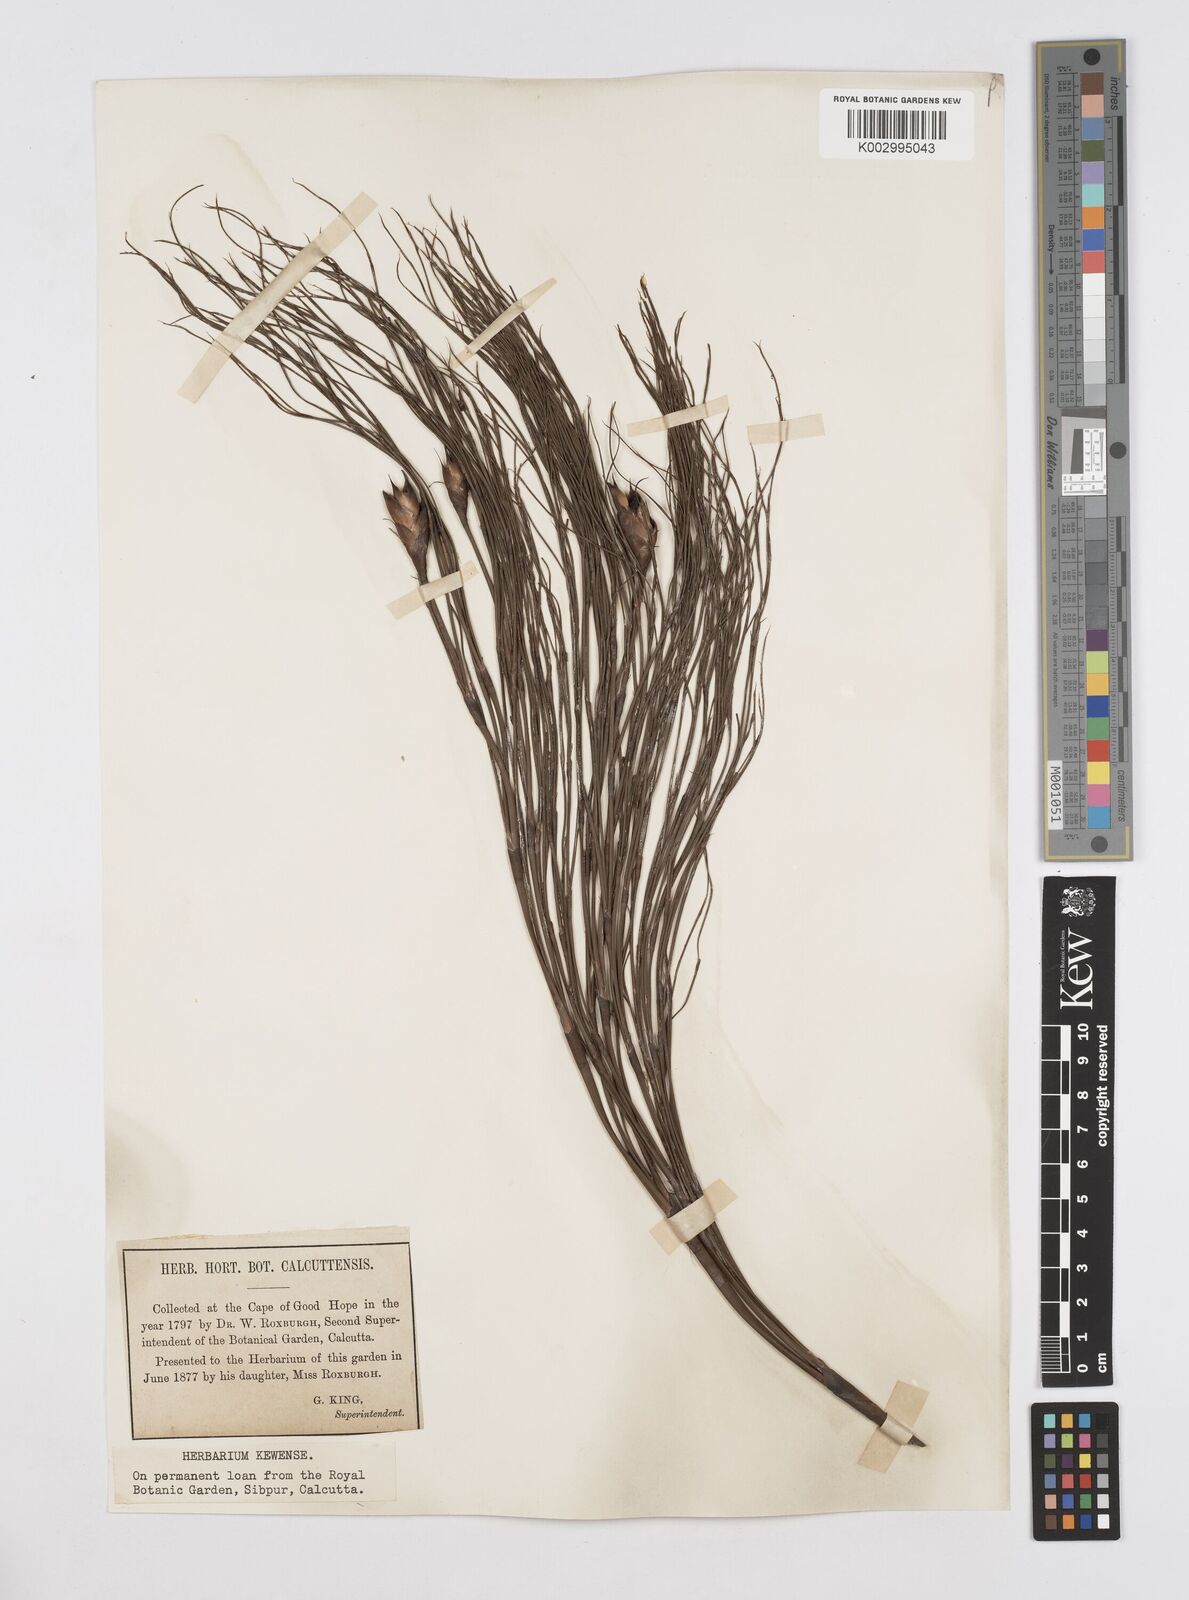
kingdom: Plantae
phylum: Tracheophyta
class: Liliopsida
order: Poales
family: Restionaceae
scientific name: Restionaceae
